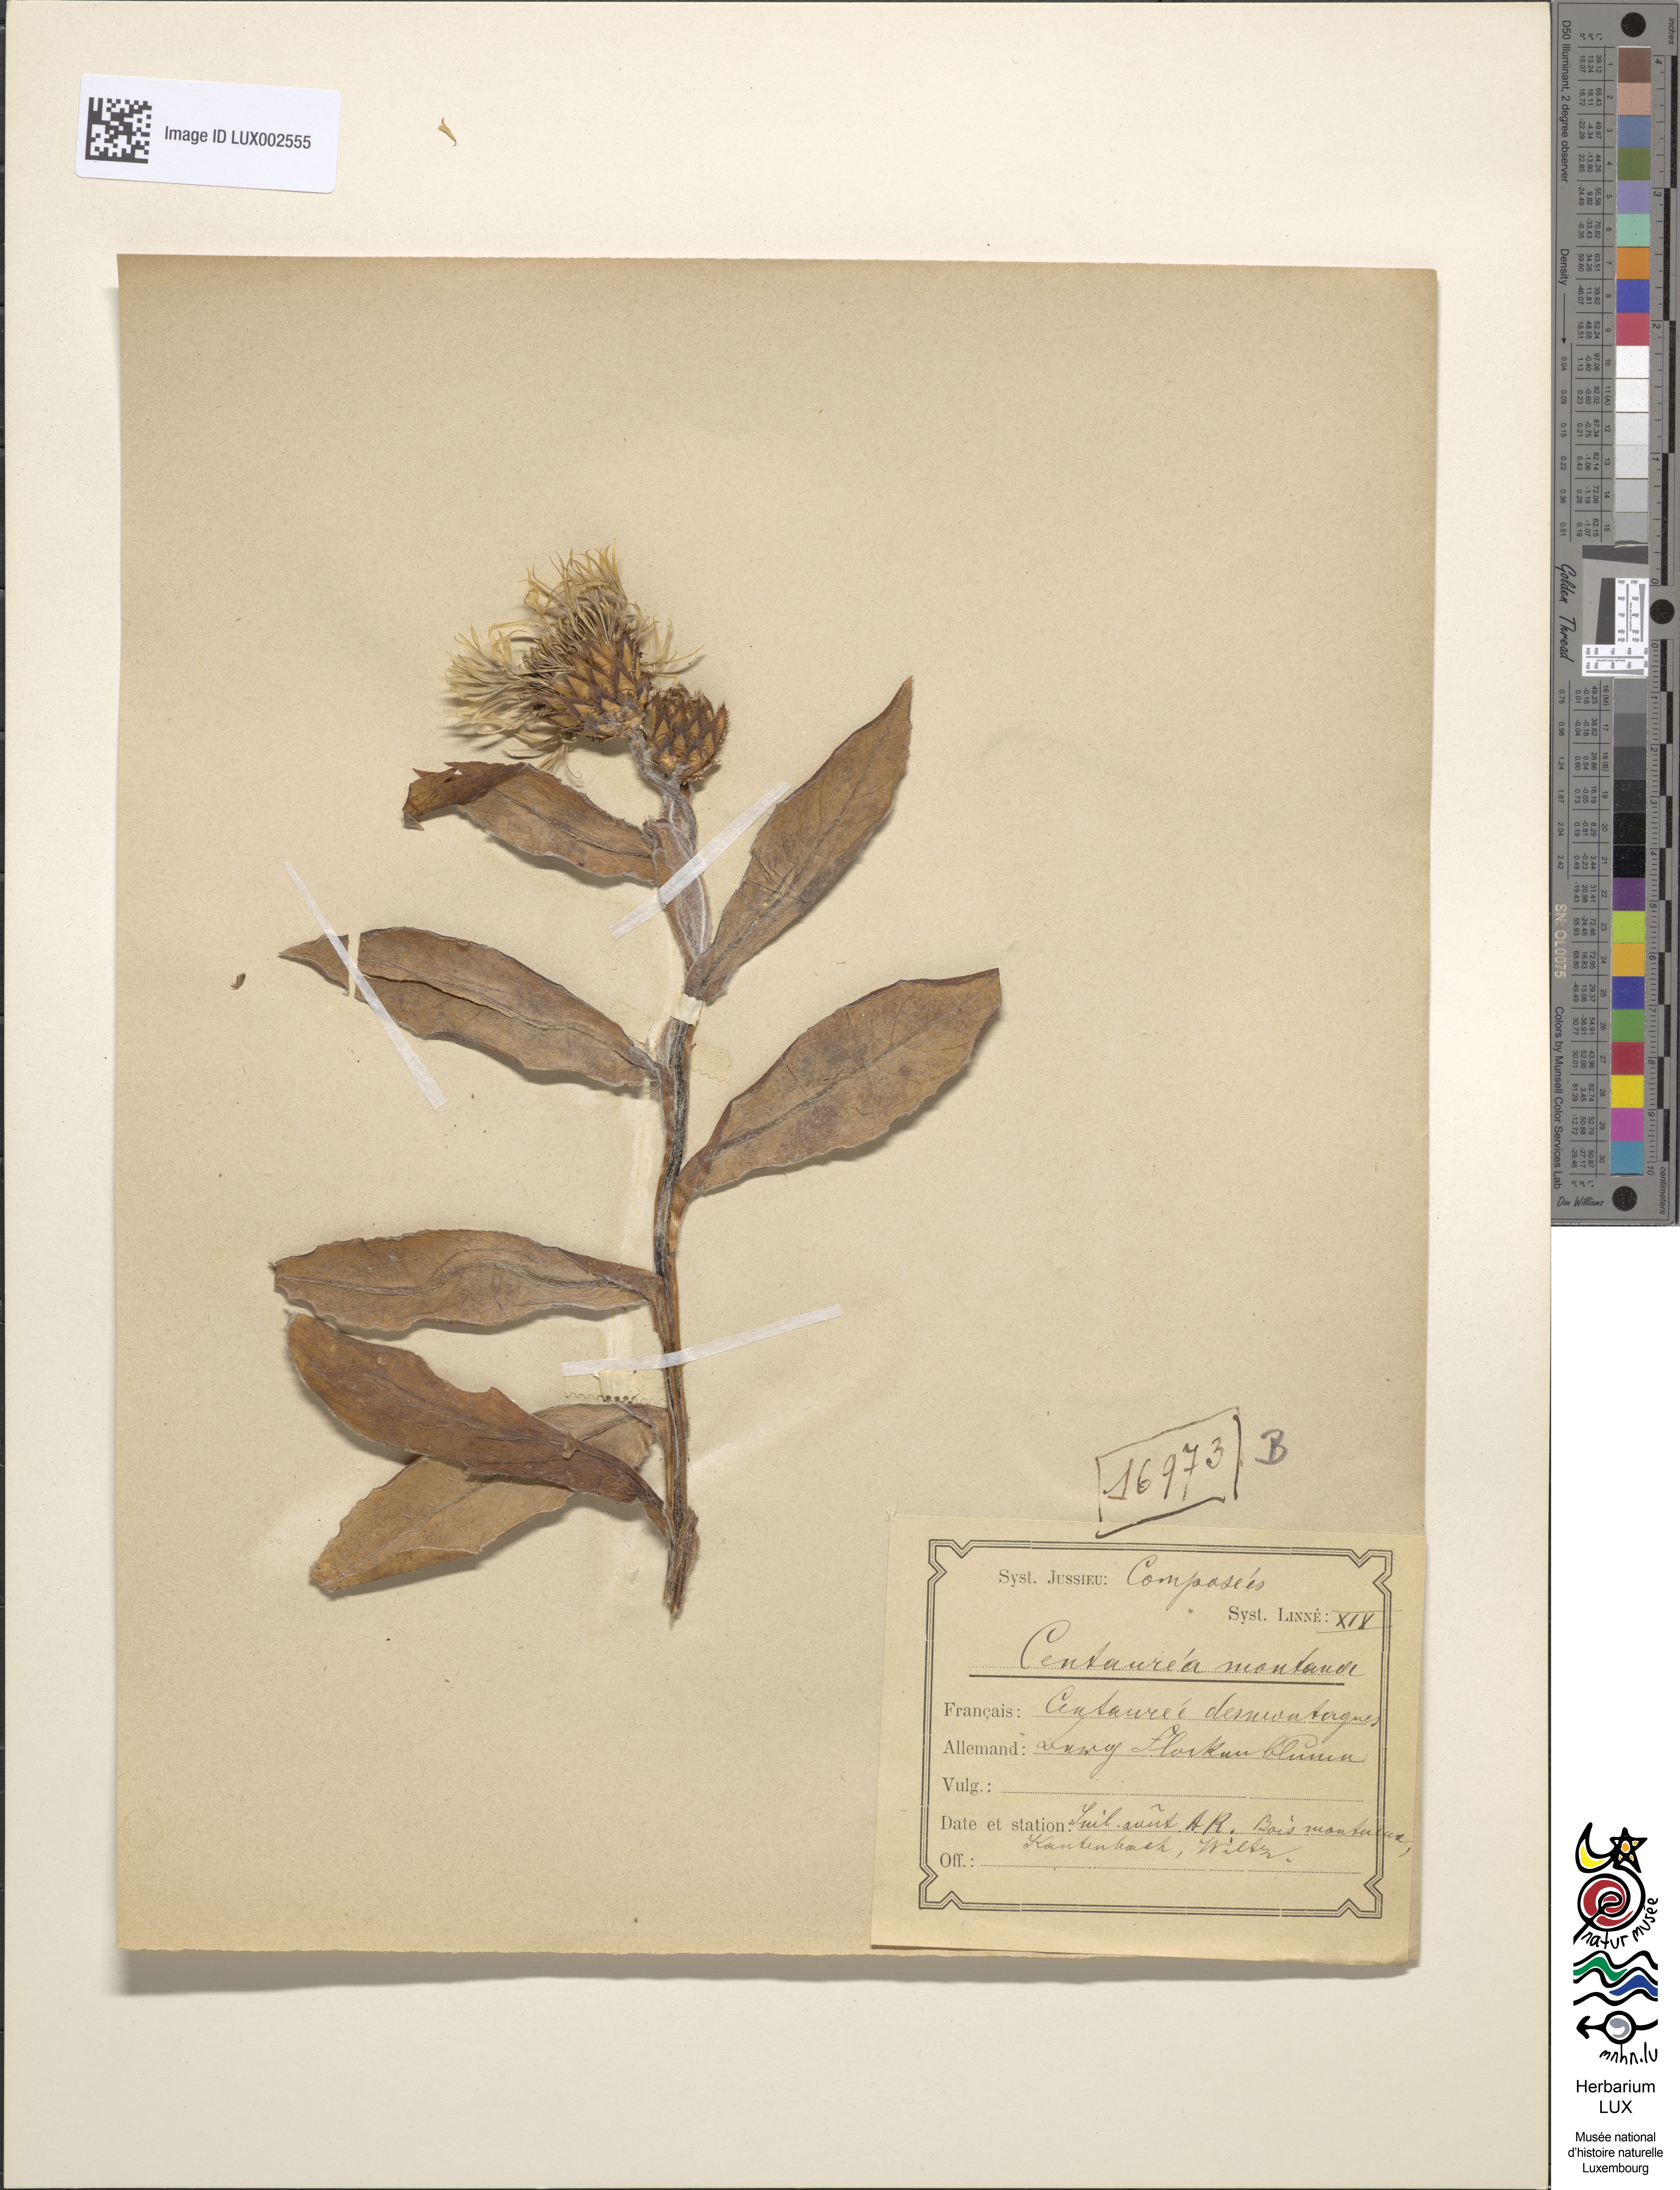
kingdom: Plantae
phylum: Tracheophyta
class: Magnoliopsida
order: Asterales
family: Asteraceae
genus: Centaurea
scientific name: Centaurea montana
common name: Perennial cornflower
